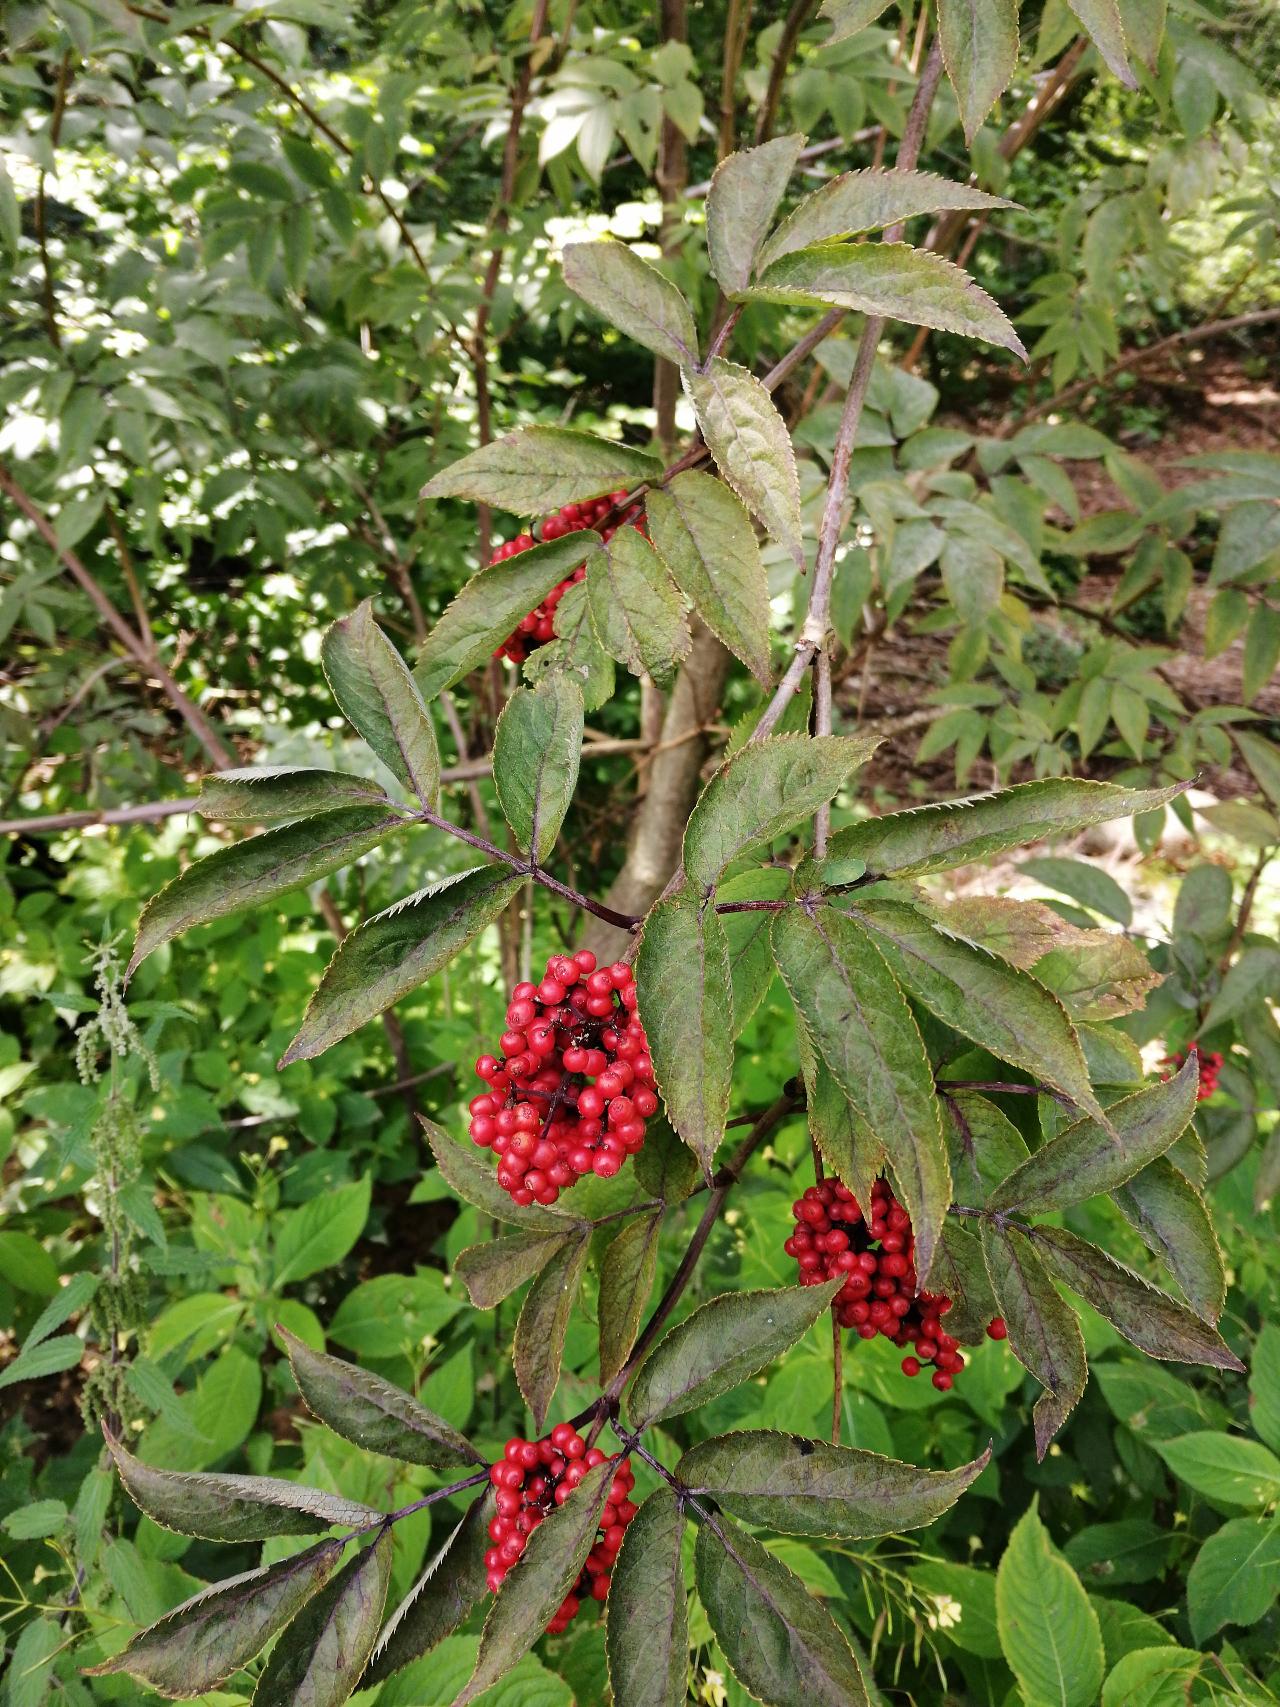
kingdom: Plantae
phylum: Tracheophyta
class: Magnoliopsida
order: Dipsacales
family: Viburnaceae
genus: Sambucus
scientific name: Sambucus racemosa
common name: Drue-hyld
